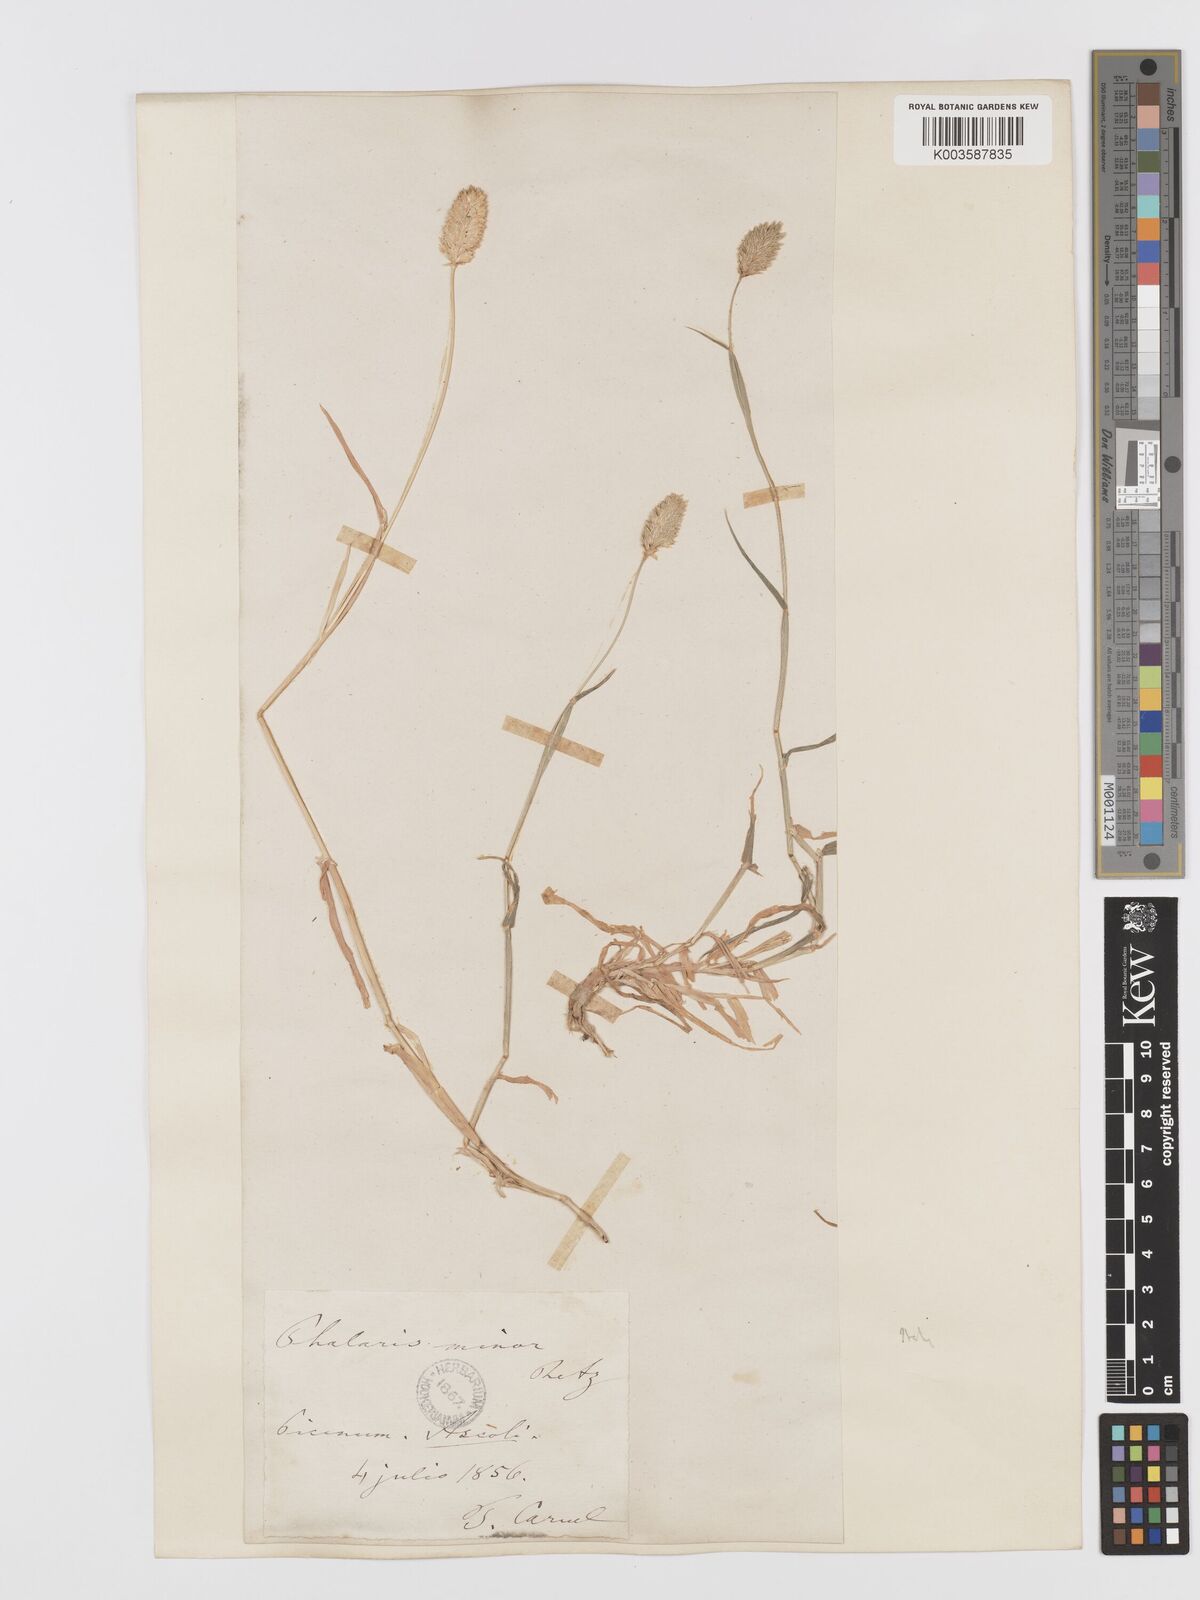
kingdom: Plantae
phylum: Tracheophyta
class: Liliopsida
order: Poales
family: Poaceae
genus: Phalaris
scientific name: Phalaris minor
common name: Littleseed canarygrass
